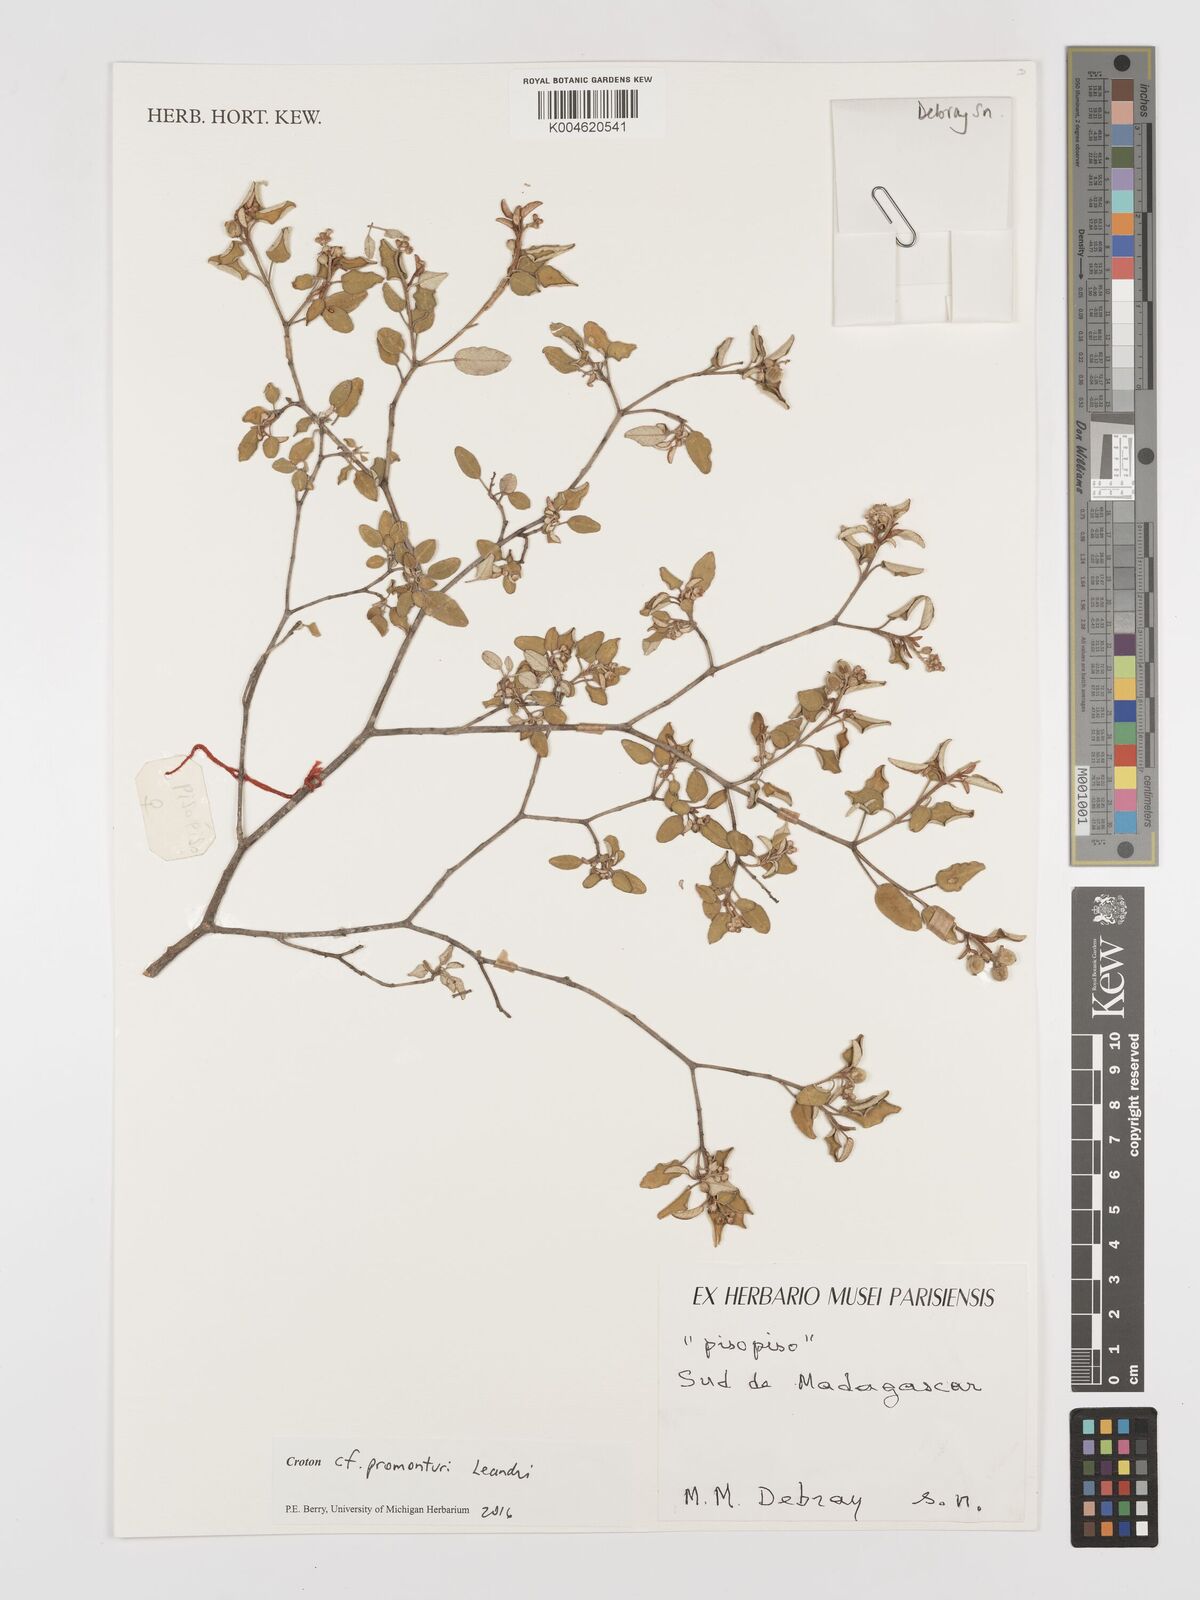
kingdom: Plantae
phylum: Tracheophyta
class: Magnoliopsida
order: Malpighiales
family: Euphorbiaceae
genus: Croton
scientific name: Croton promunturii
